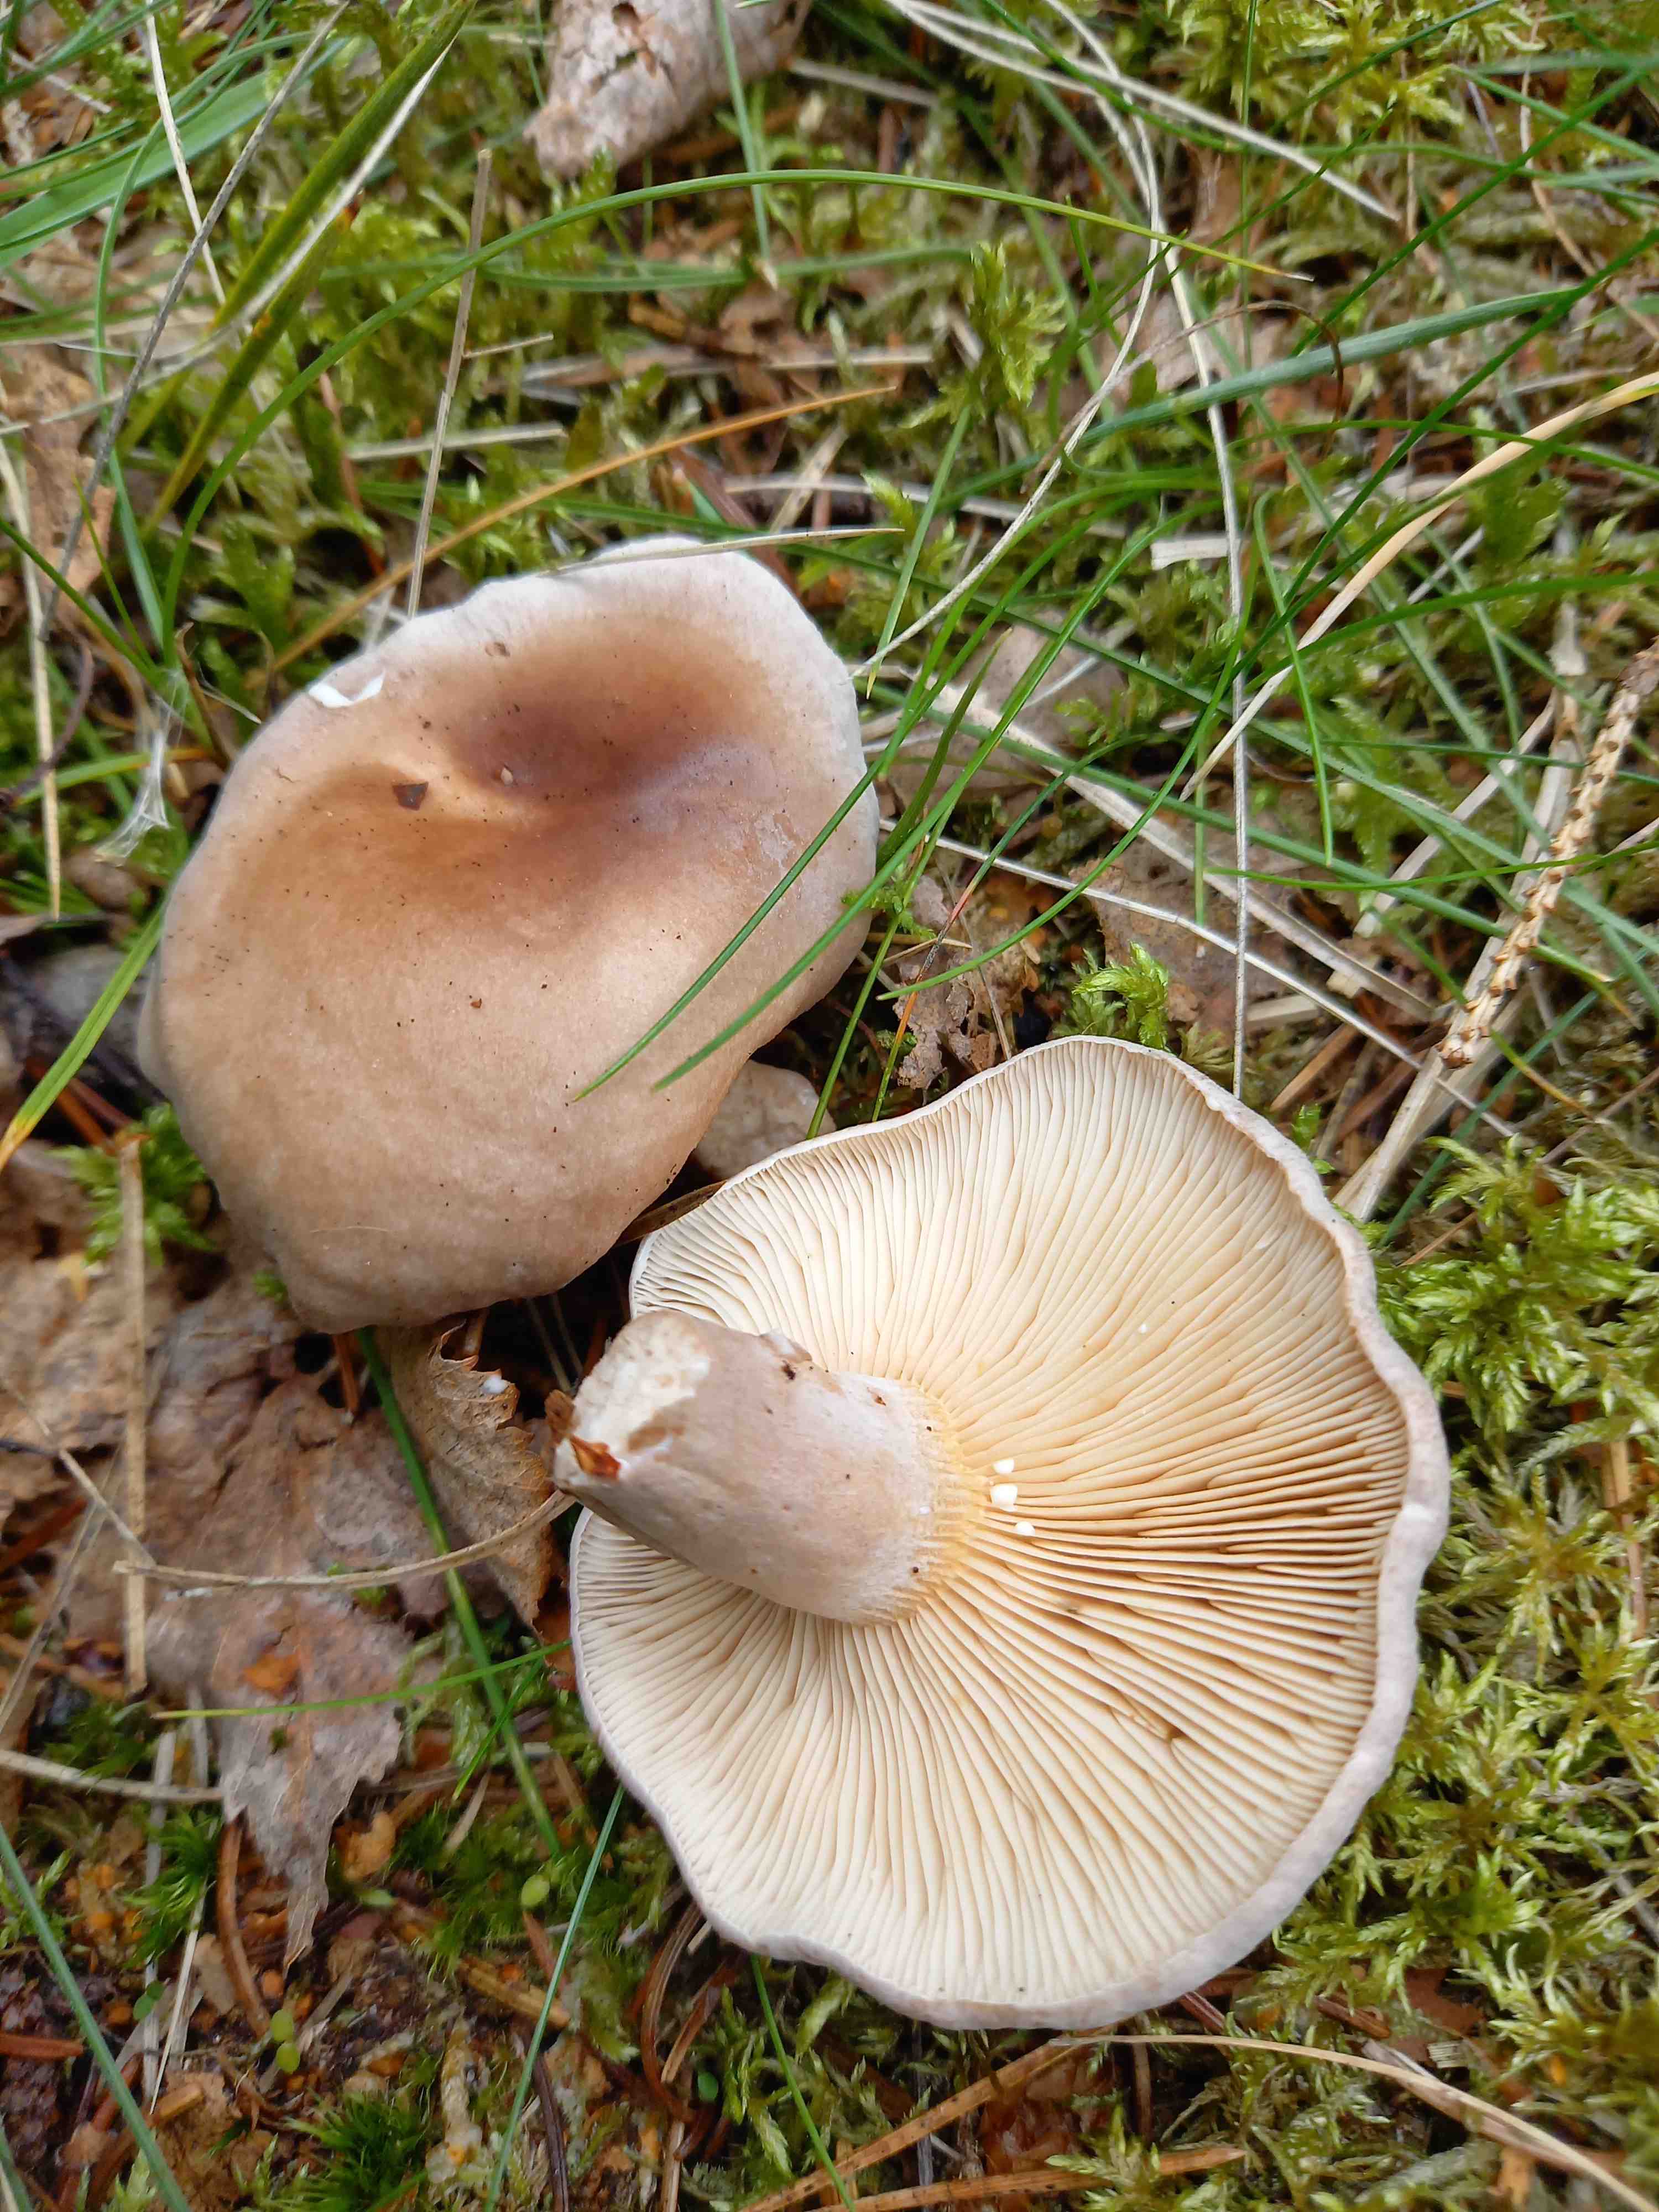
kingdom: Fungi
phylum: Basidiomycota
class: Agaricomycetes
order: Russulales
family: Russulaceae
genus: Lactarius
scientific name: Lactarius vietus
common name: violetgrå mælkehat
